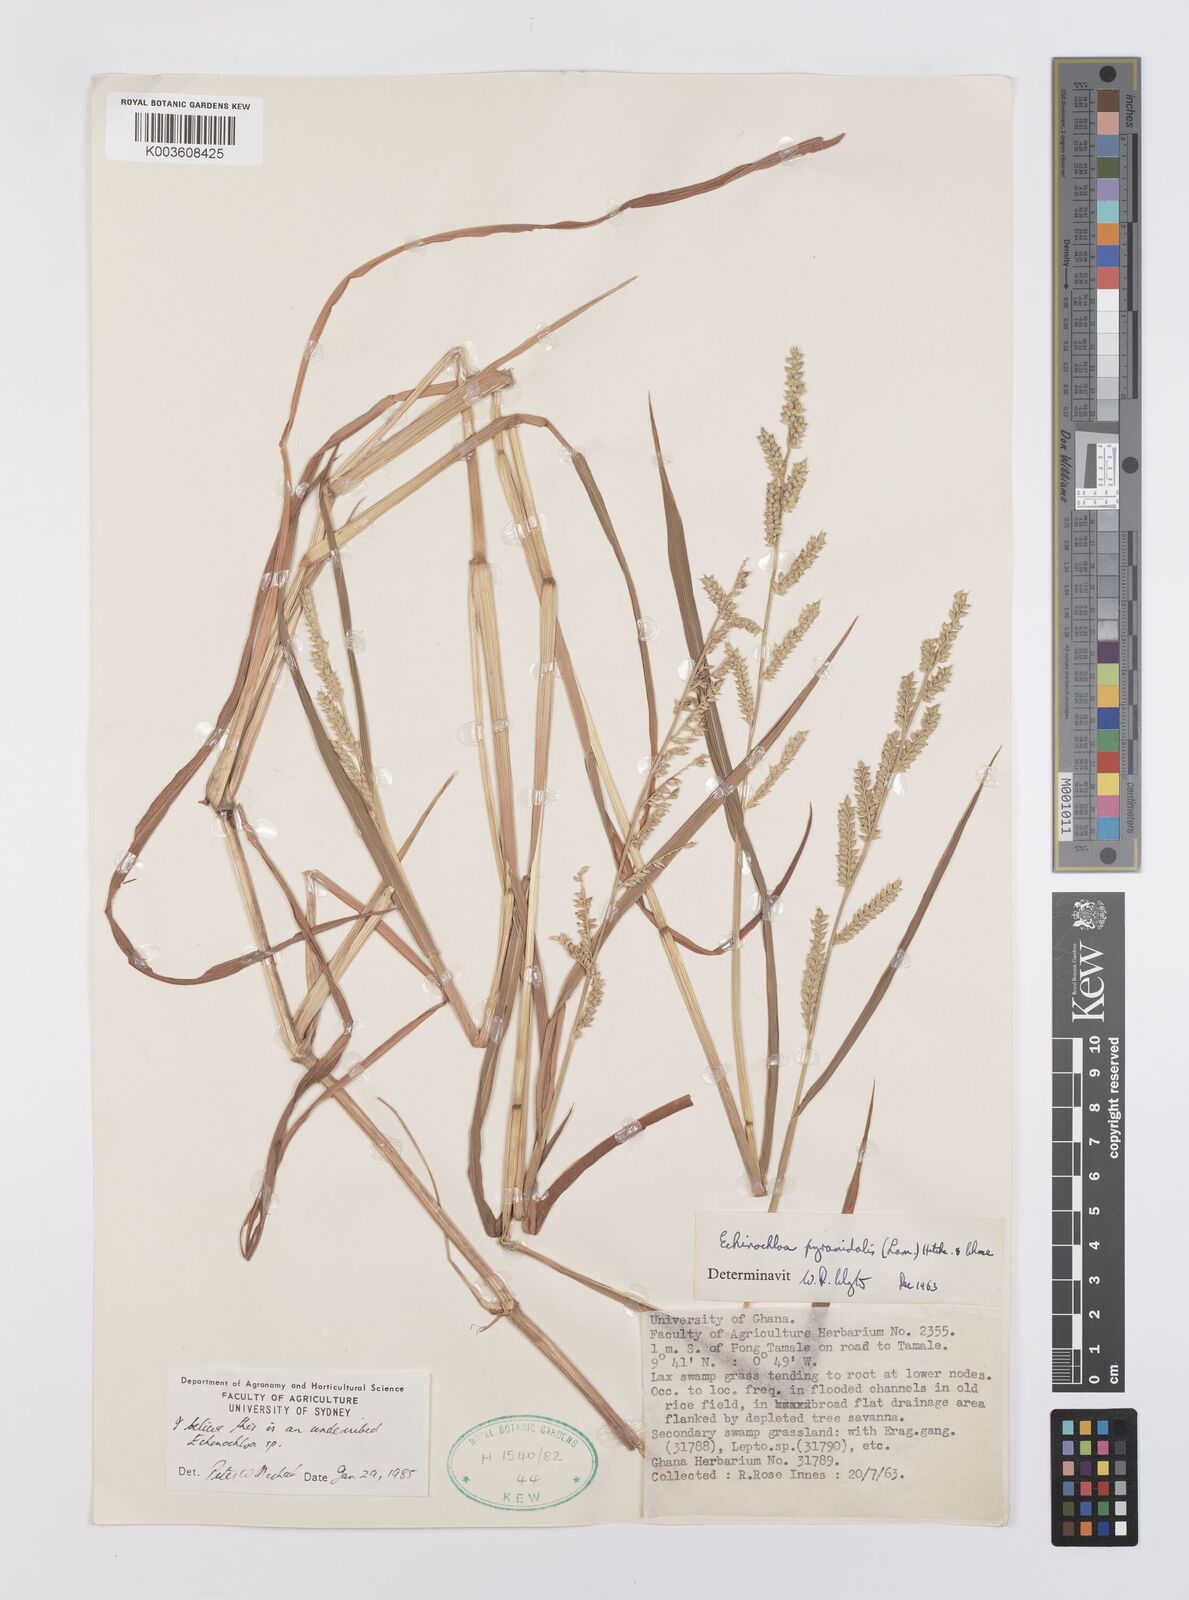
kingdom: Plantae
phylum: Tracheophyta
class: Liliopsida
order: Poales
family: Poaceae
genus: Echinochloa
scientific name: Echinochloa pyramidalis
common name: Antelope grass
